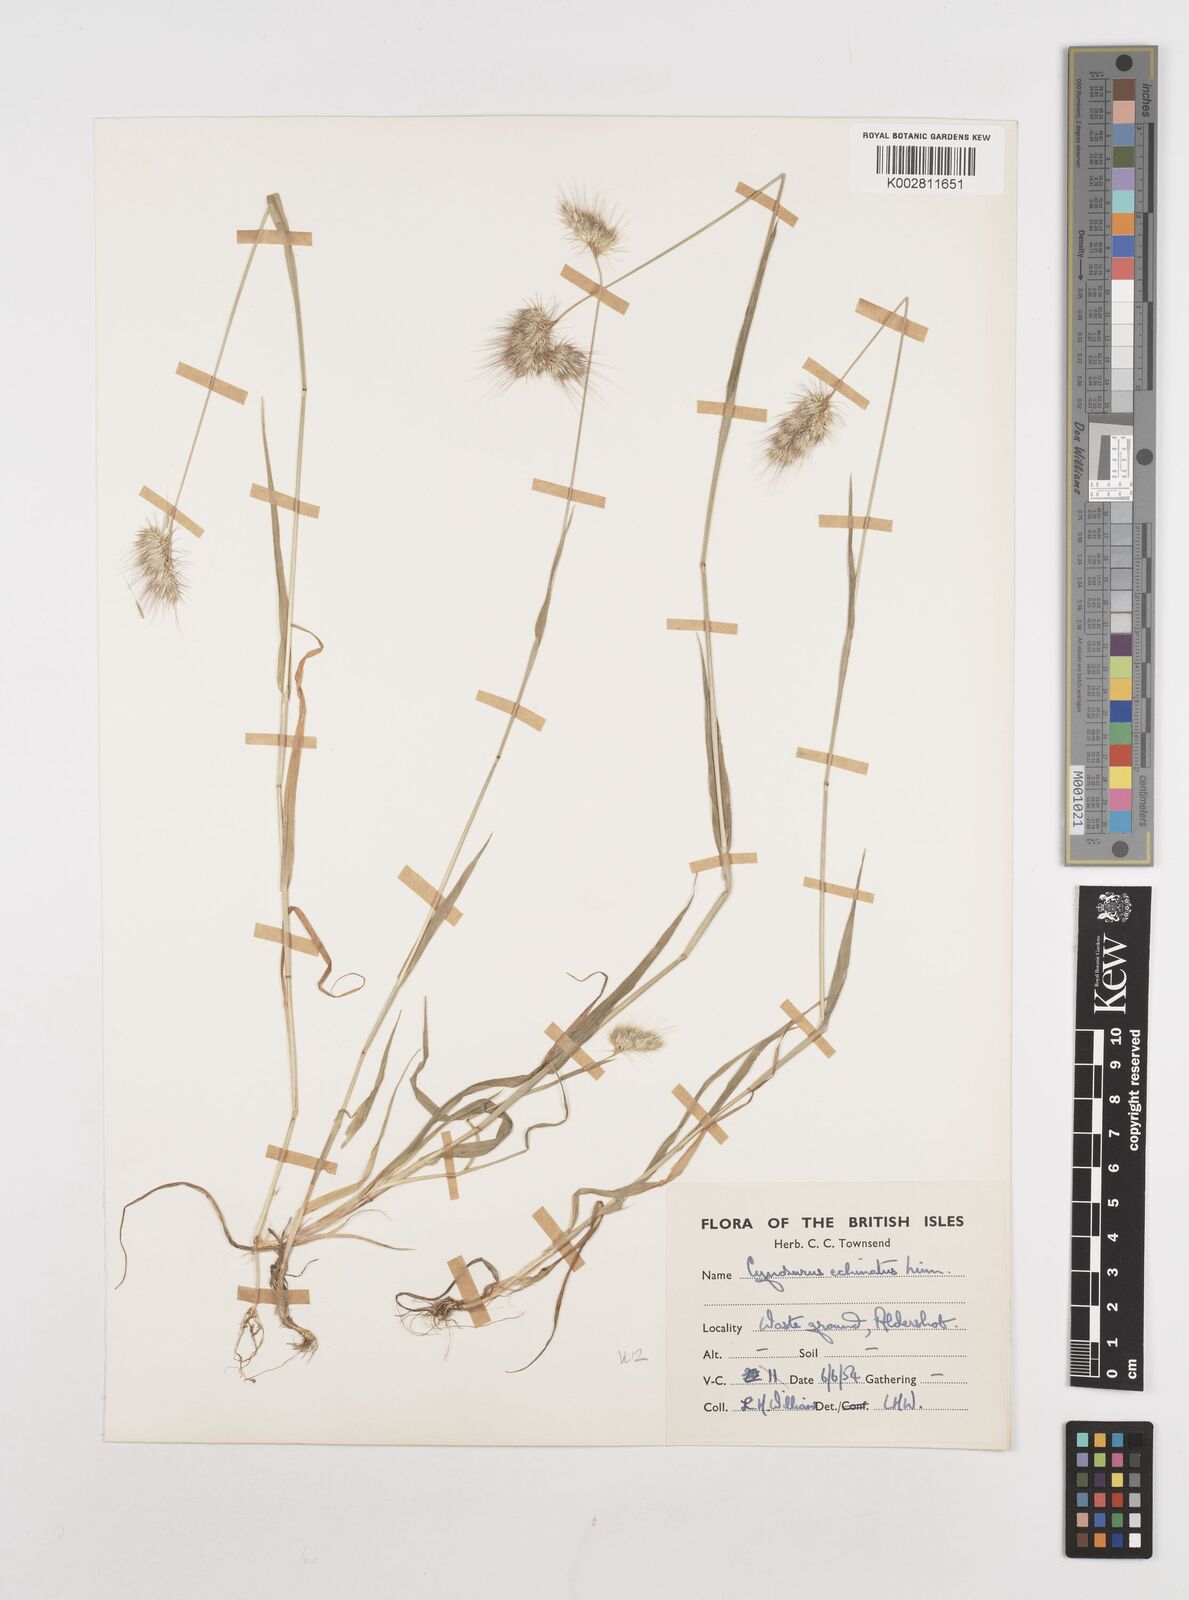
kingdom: Plantae
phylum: Tracheophyta
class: Liliopsida
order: Poales
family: Poaceae
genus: Cynosurus
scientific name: Cynosurus echinatus
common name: Rough dog's-tail
